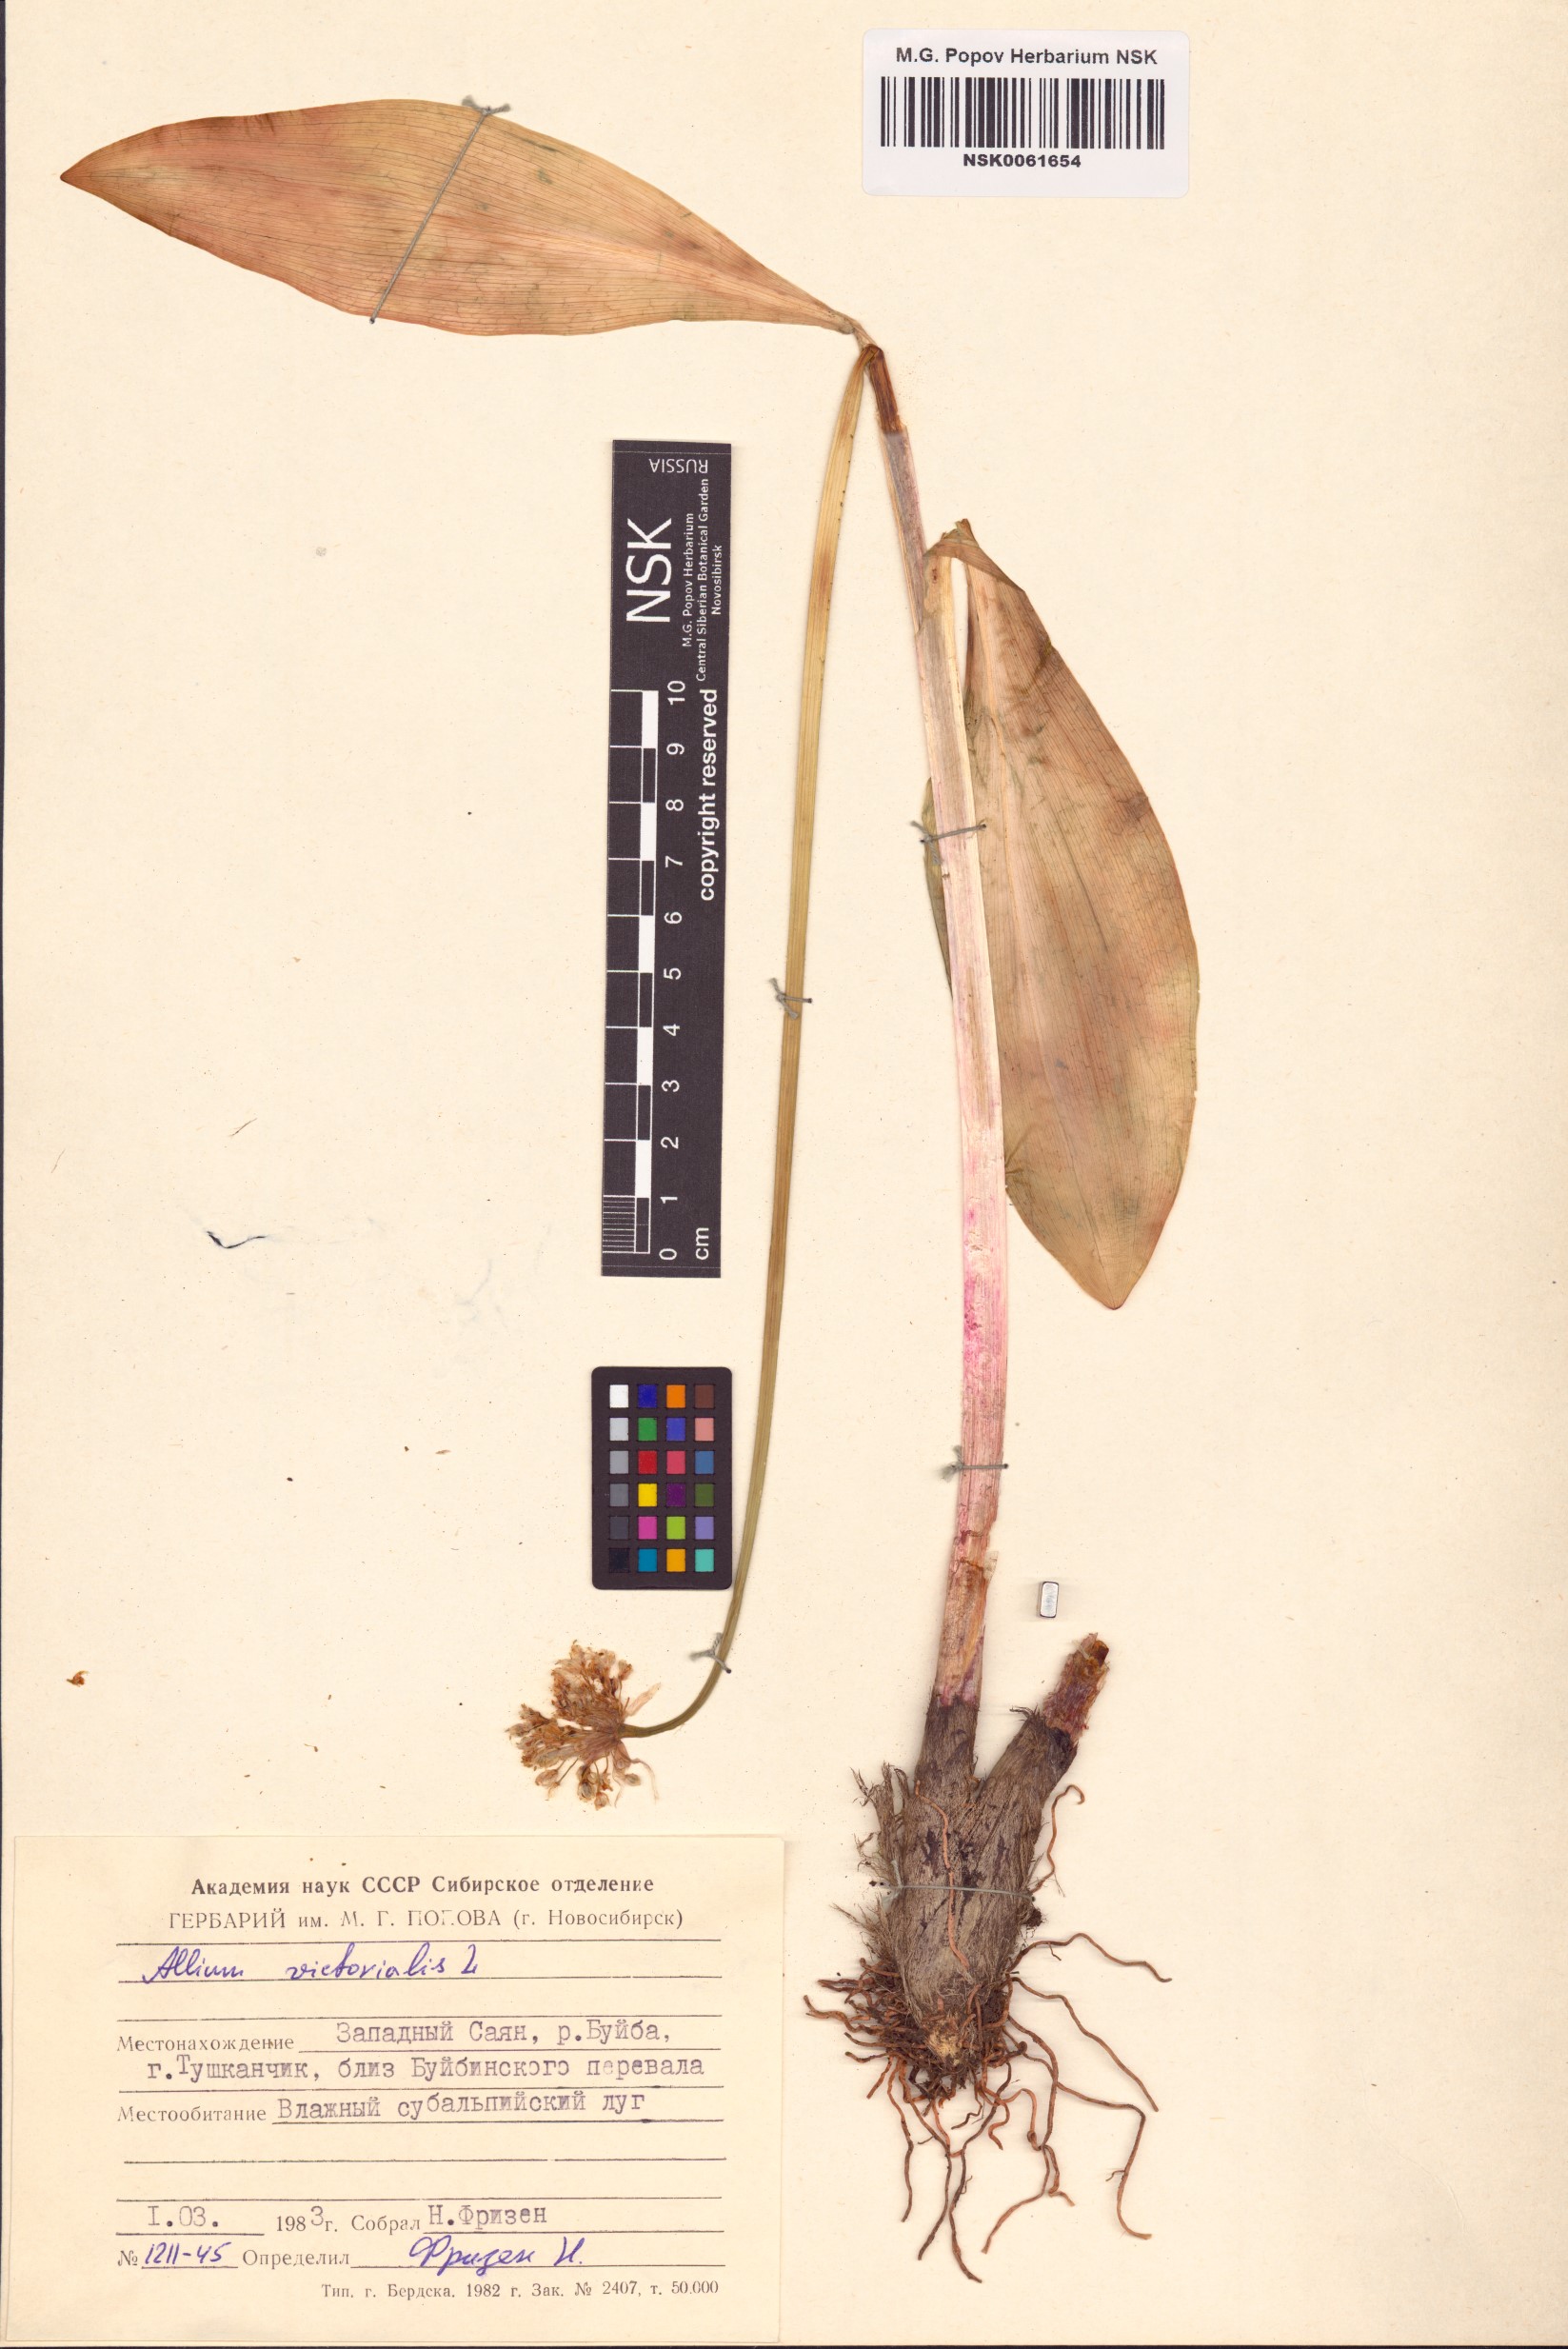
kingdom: Plantae
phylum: Tracheophyta
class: Liliopsida
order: Asparagales
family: Amaryllidaceae
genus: Allium
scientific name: Allium victorialis
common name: Alpine leek
